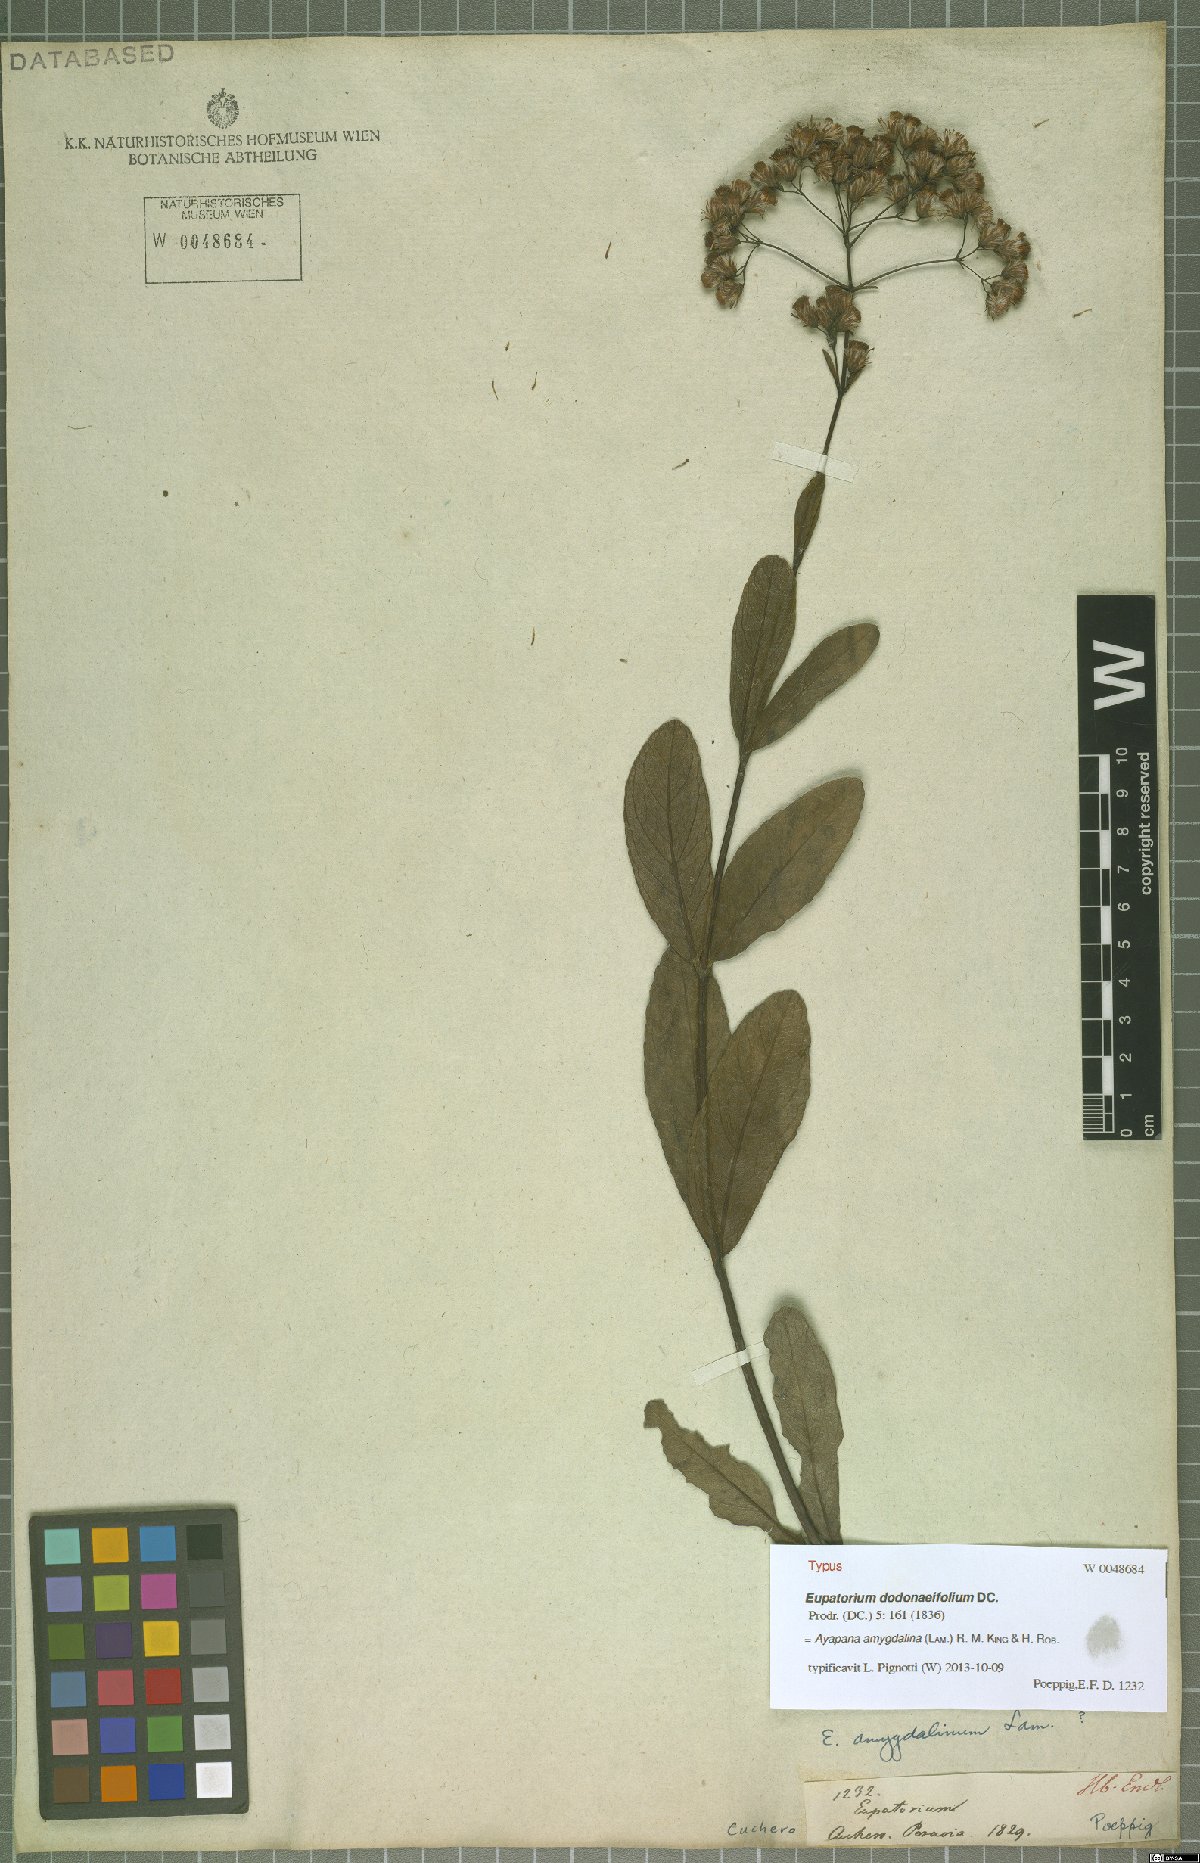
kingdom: Plantae
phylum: Tracheophyta
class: Magnoliopsida
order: Asterales
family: Asteraceae
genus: Ayapana
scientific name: Ayapana amygdalina
